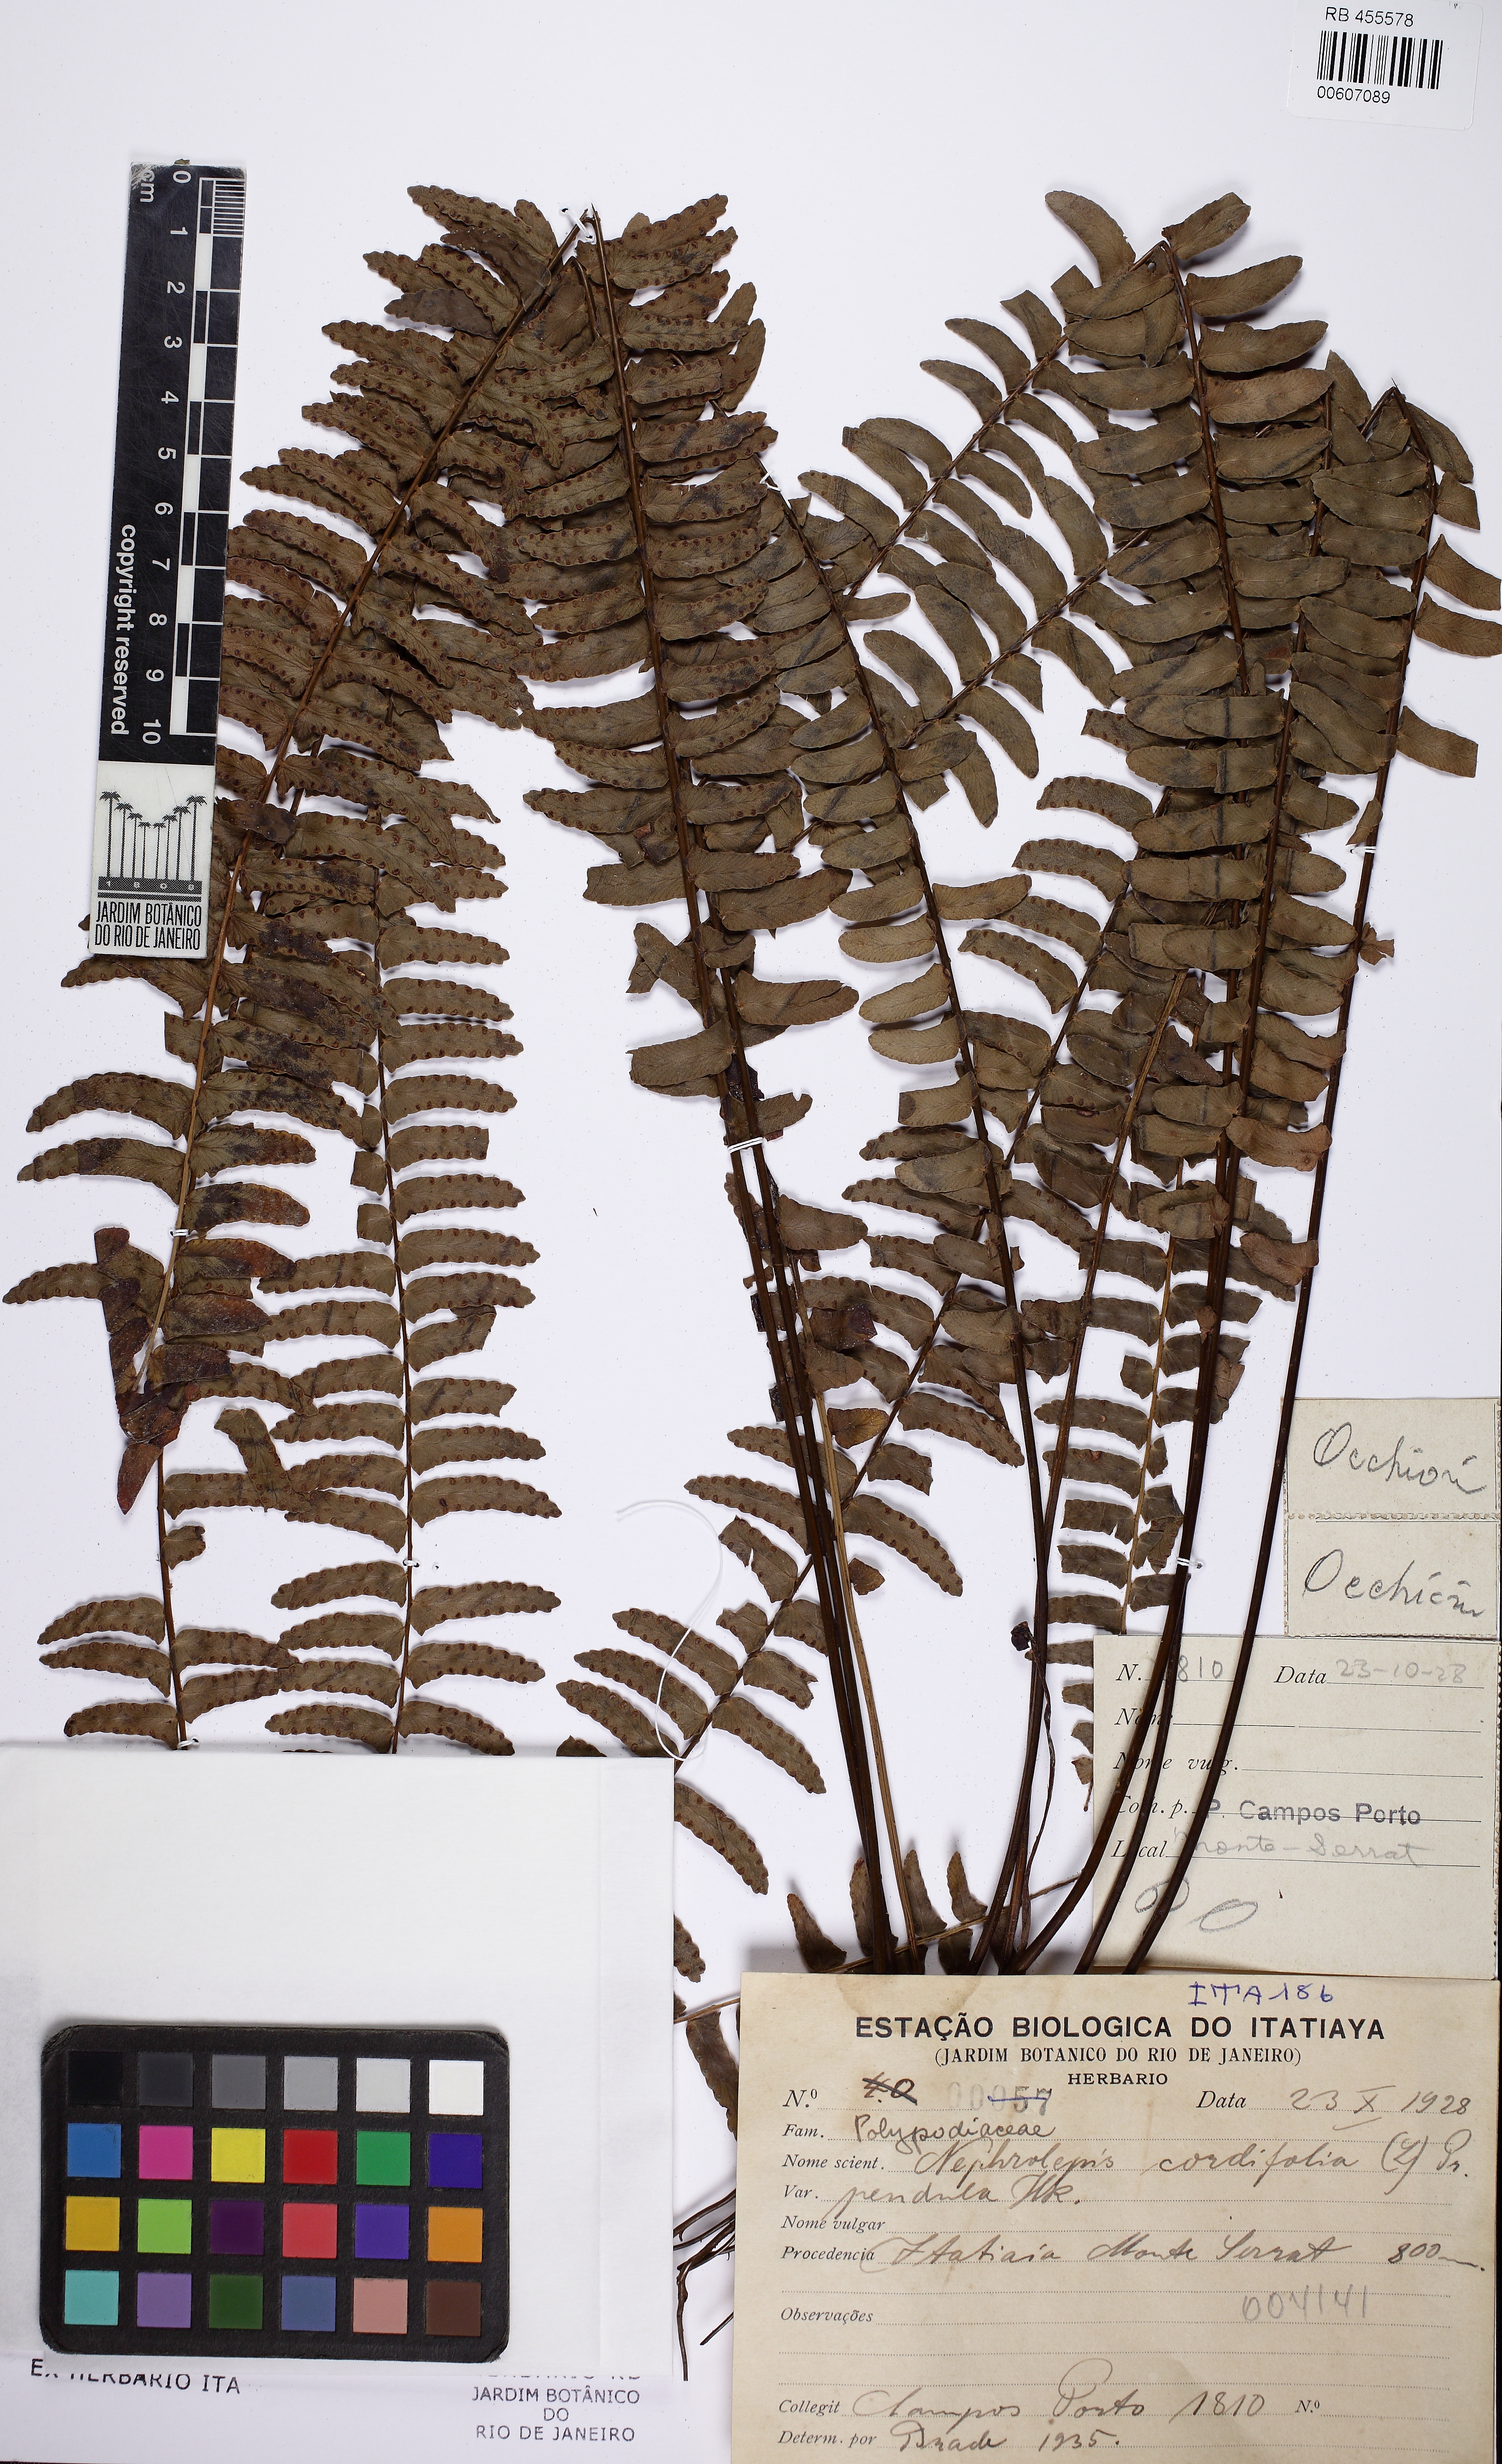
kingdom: Plantae
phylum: Tracheophyta
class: Polypodiopsida
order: Polypodiales
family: Nephrolepidaceae
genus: Nephrolepis
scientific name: Nephrolepis cordifolia
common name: Narrow swordfern
